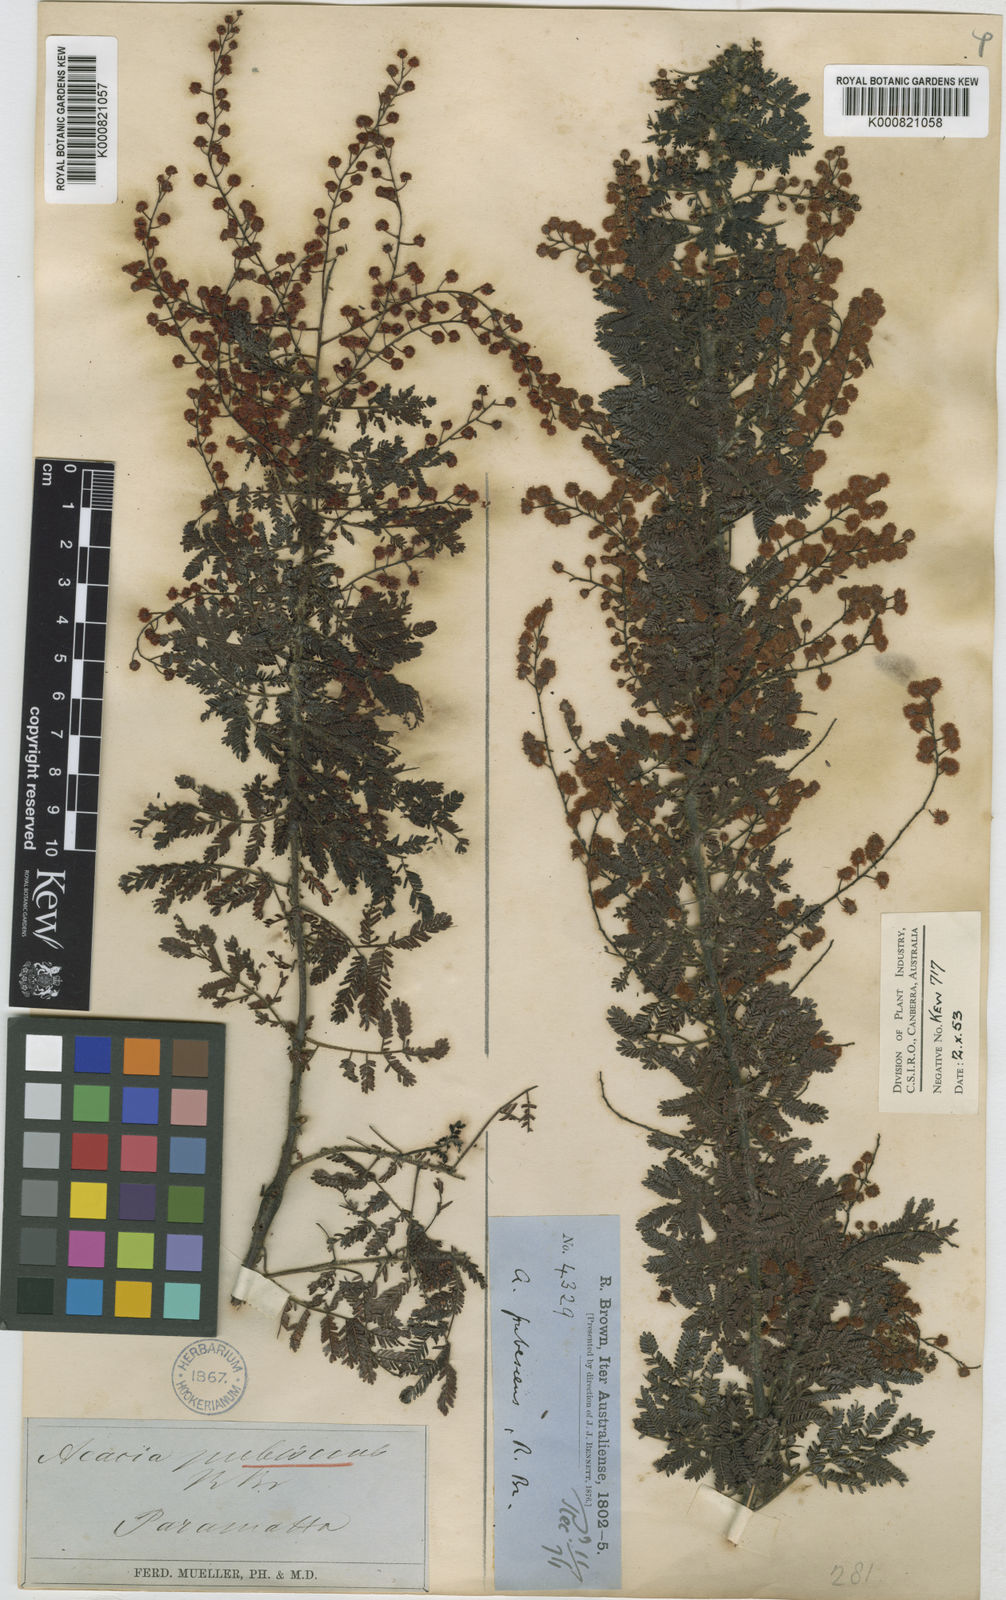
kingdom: Plantae
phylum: Tracheophyta
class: Magnoliopsida
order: Fabales
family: Fabaceae
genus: Acacia
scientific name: Acacia pubescens
